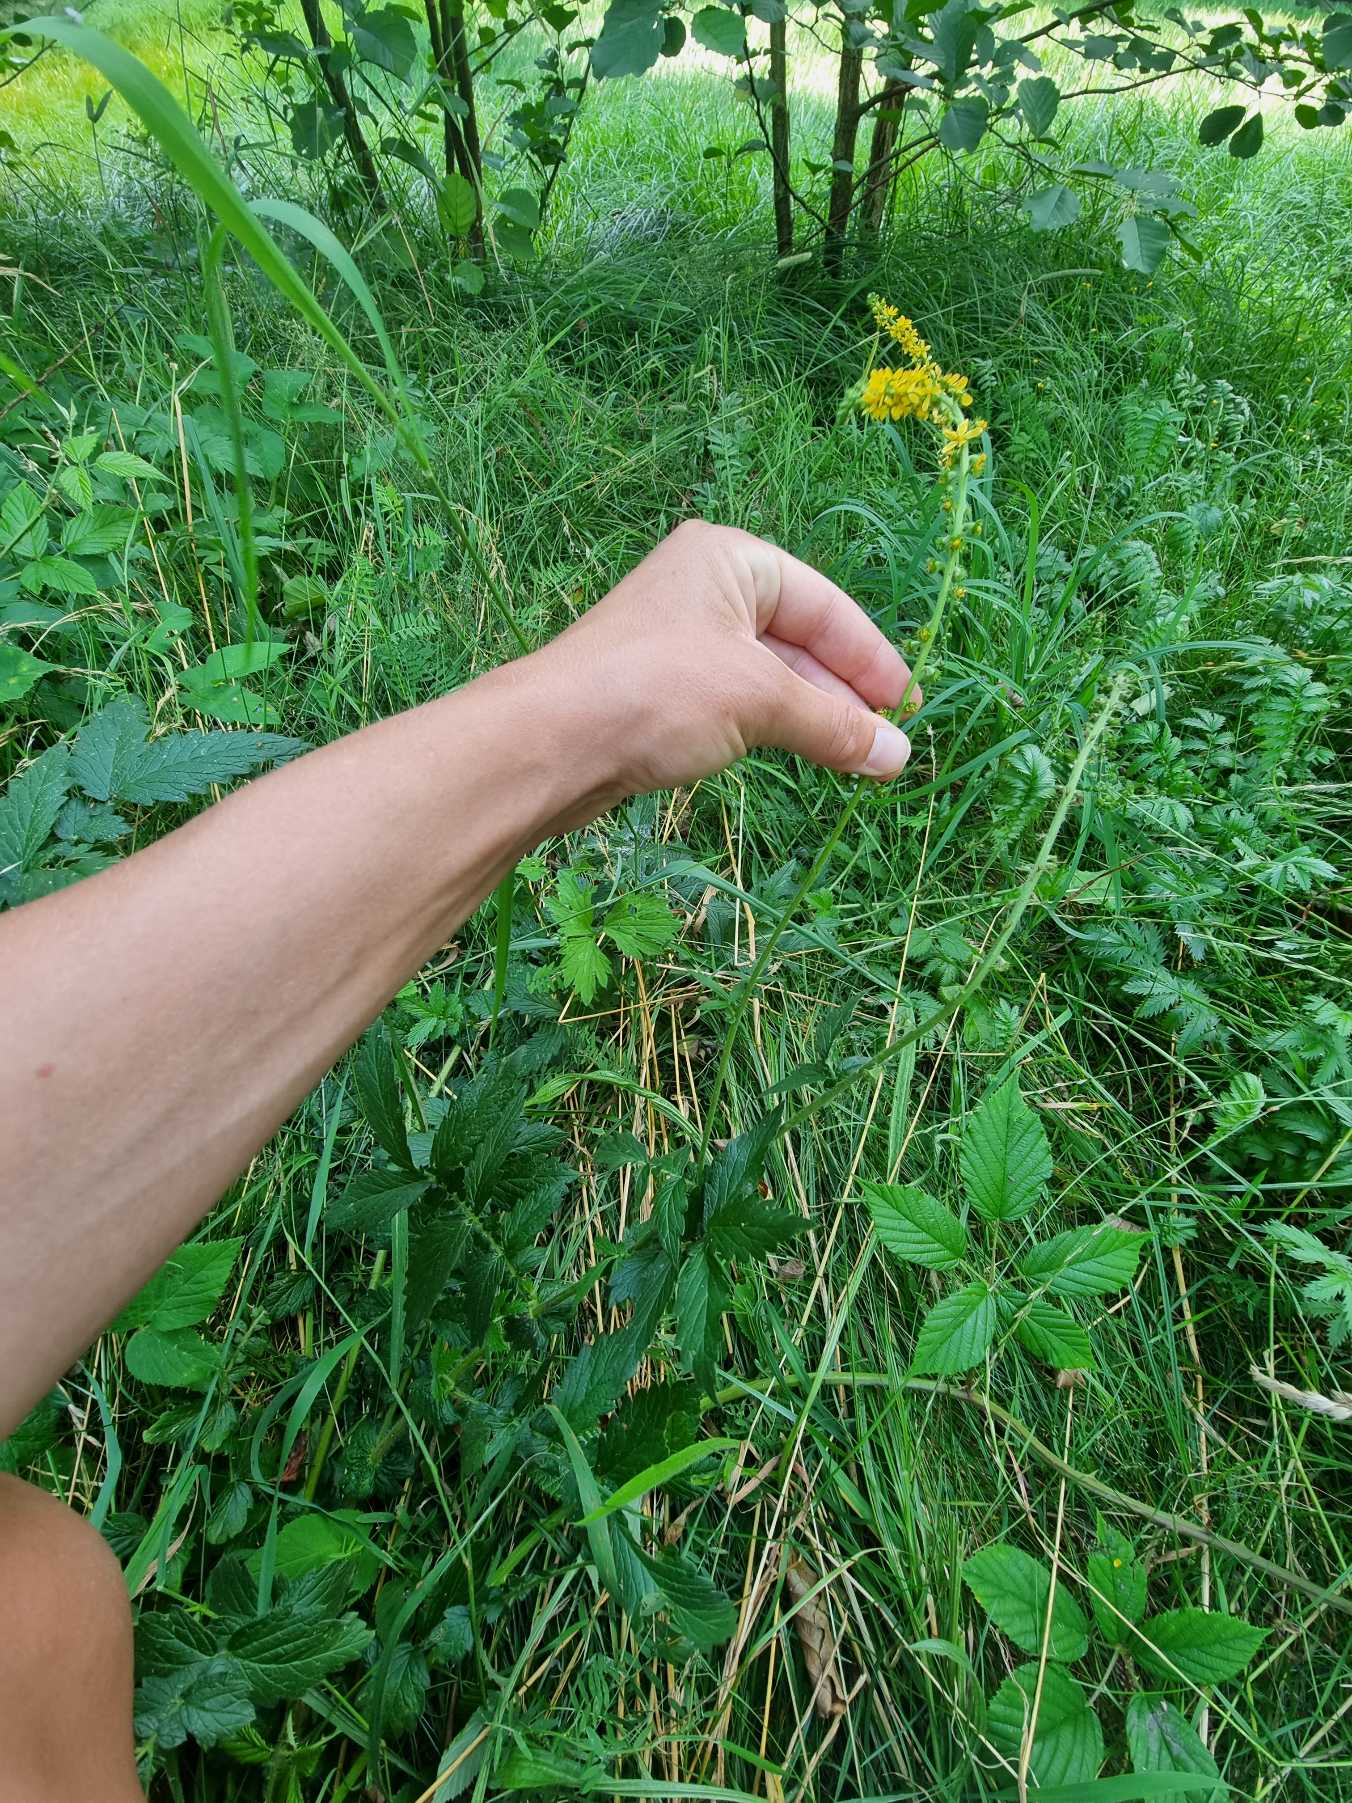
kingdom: Plantae
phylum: Tracheophyta
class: Magnoliopsida
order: Rosales
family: Rosaceae
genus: Agrimonia
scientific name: Agrimonia eupatoria
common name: Almindelig agermåne
